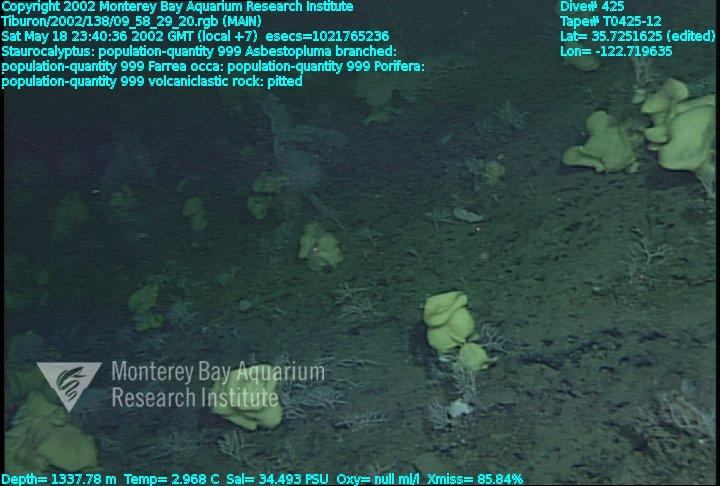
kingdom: Animalia
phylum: Porifera
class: Demospongiae
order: Poecilosclerida
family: Cladorhizidae
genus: Asbestopluma
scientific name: Asbestopluma monticola
